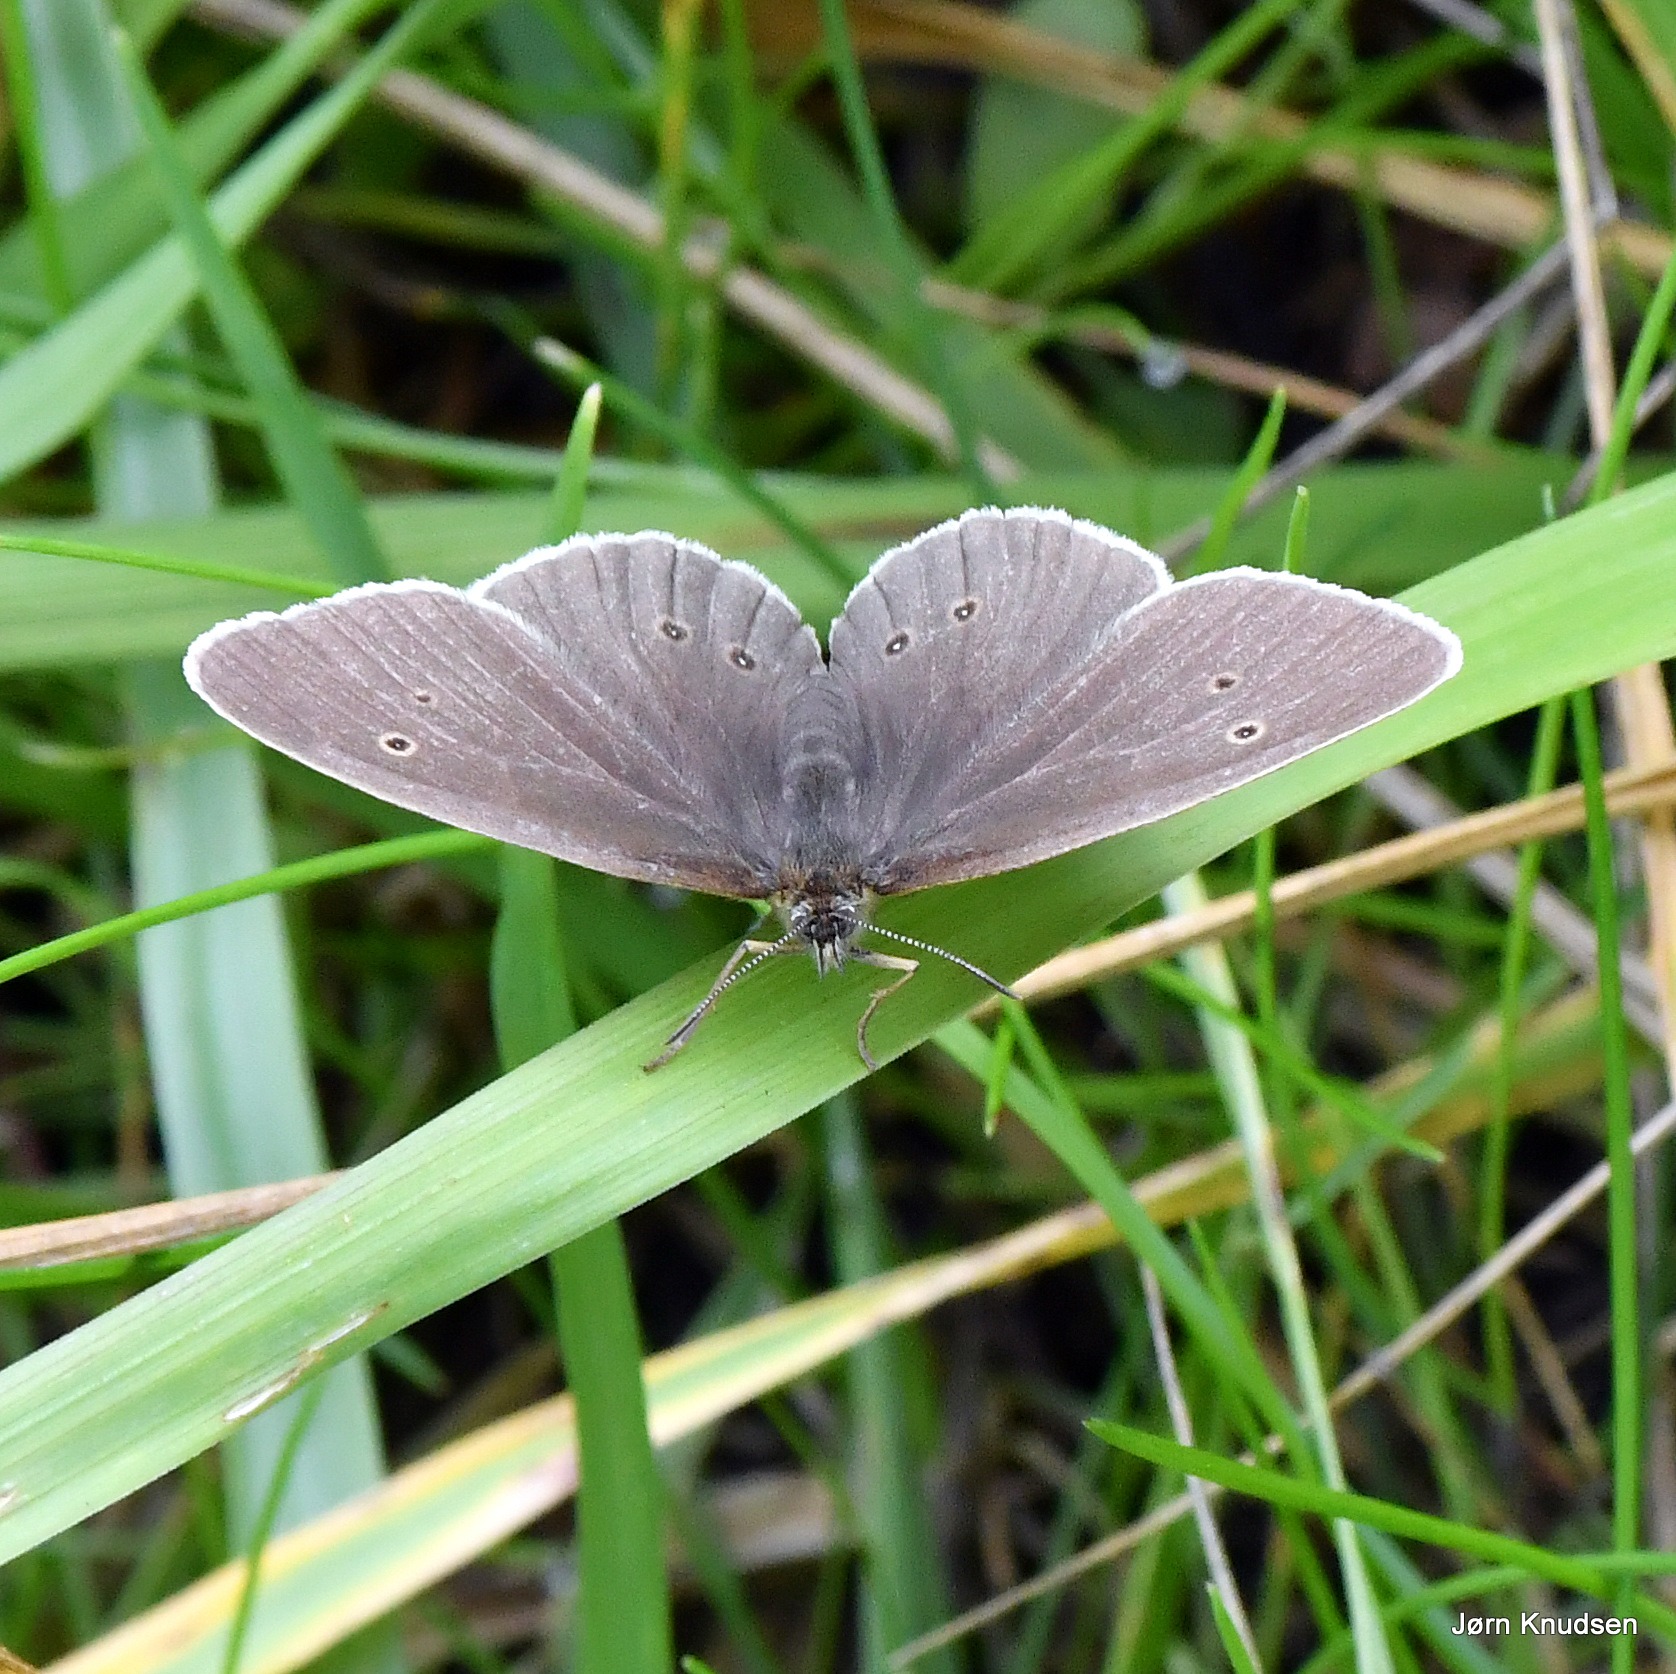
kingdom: Animalia
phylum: Arthropoda
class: Insecta
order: Lepidoptera
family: Nymphalidae
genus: Aphantopus
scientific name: Aphantopus hyperantus
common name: Engrandøje
